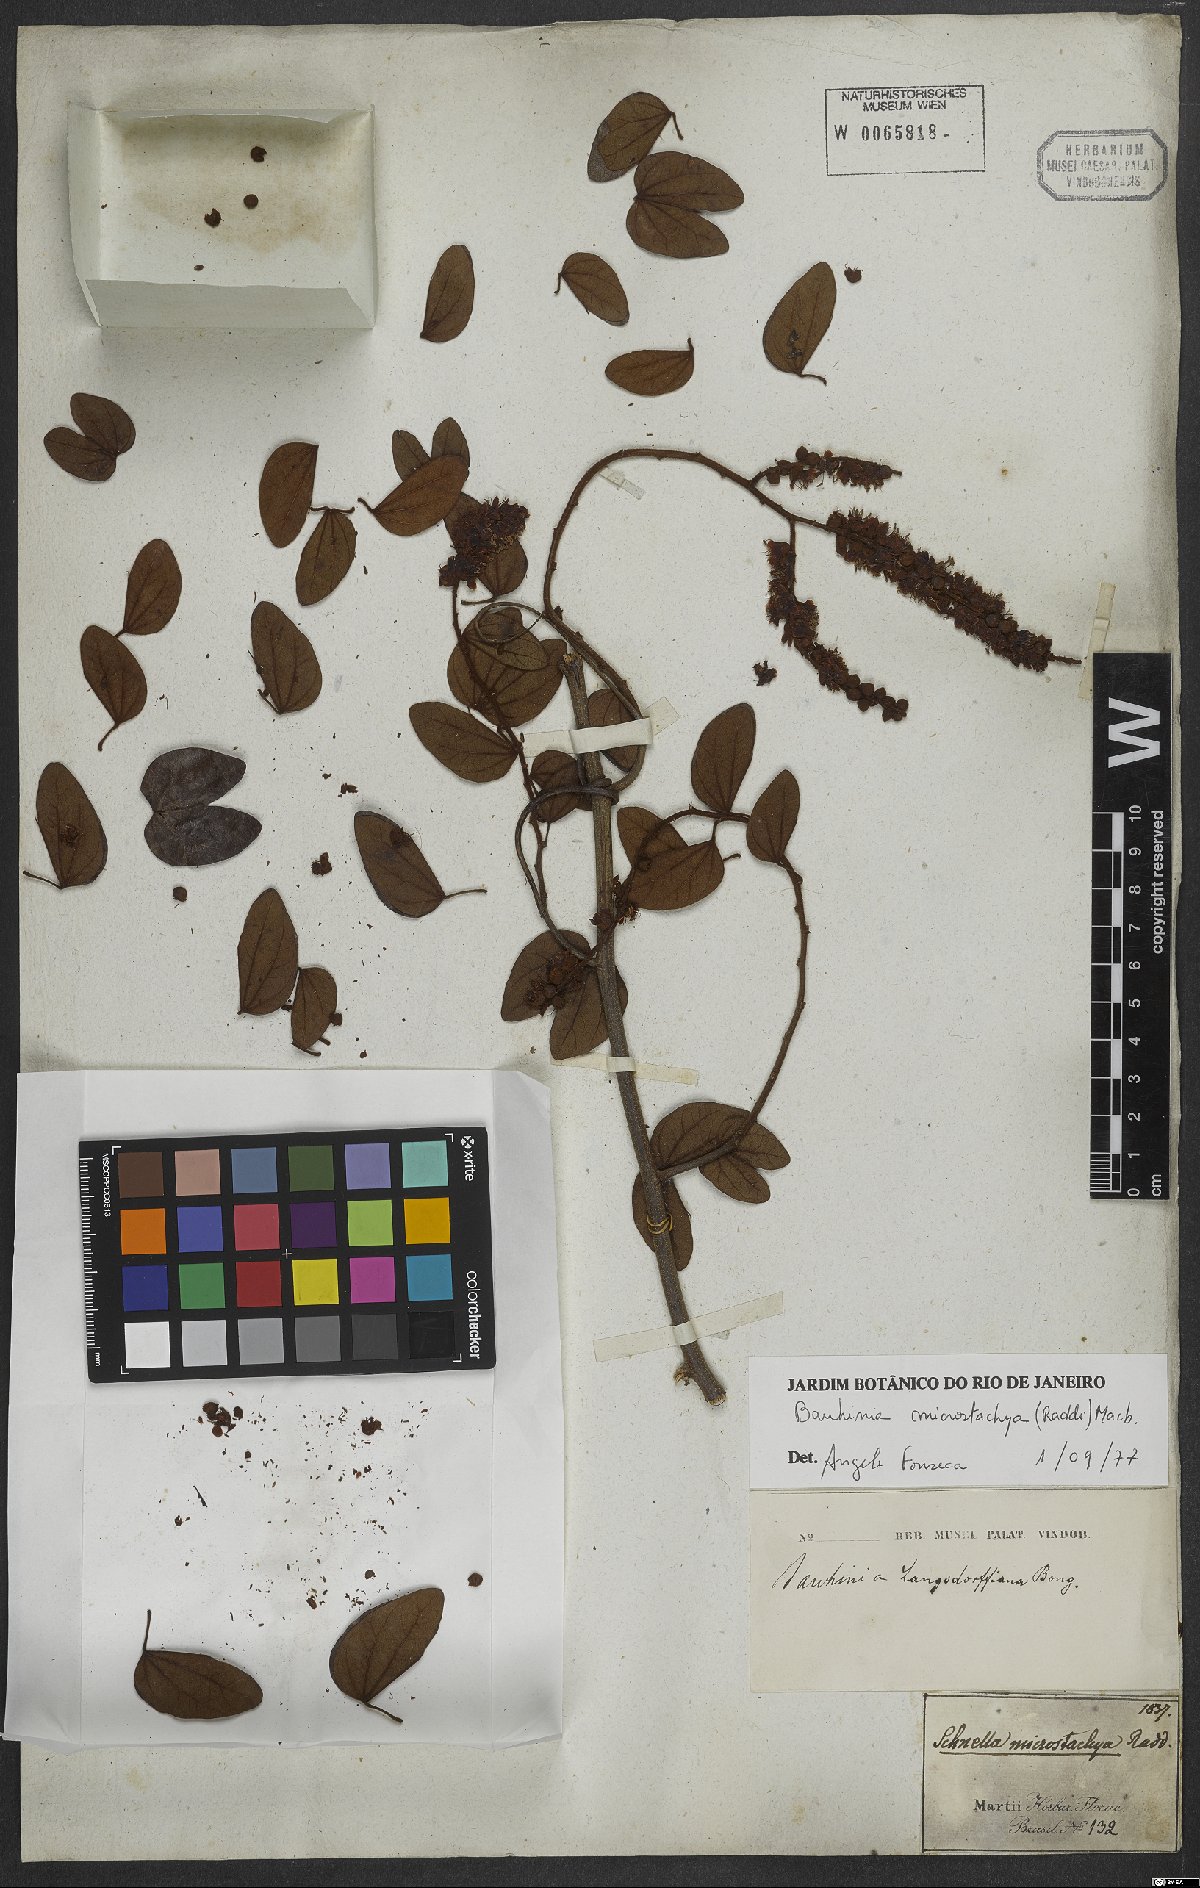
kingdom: Plantae
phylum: Tracheophyta
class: Magnoliopsida
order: Fabales
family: Fabaceae
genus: Schnella
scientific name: Schnella microstachya
